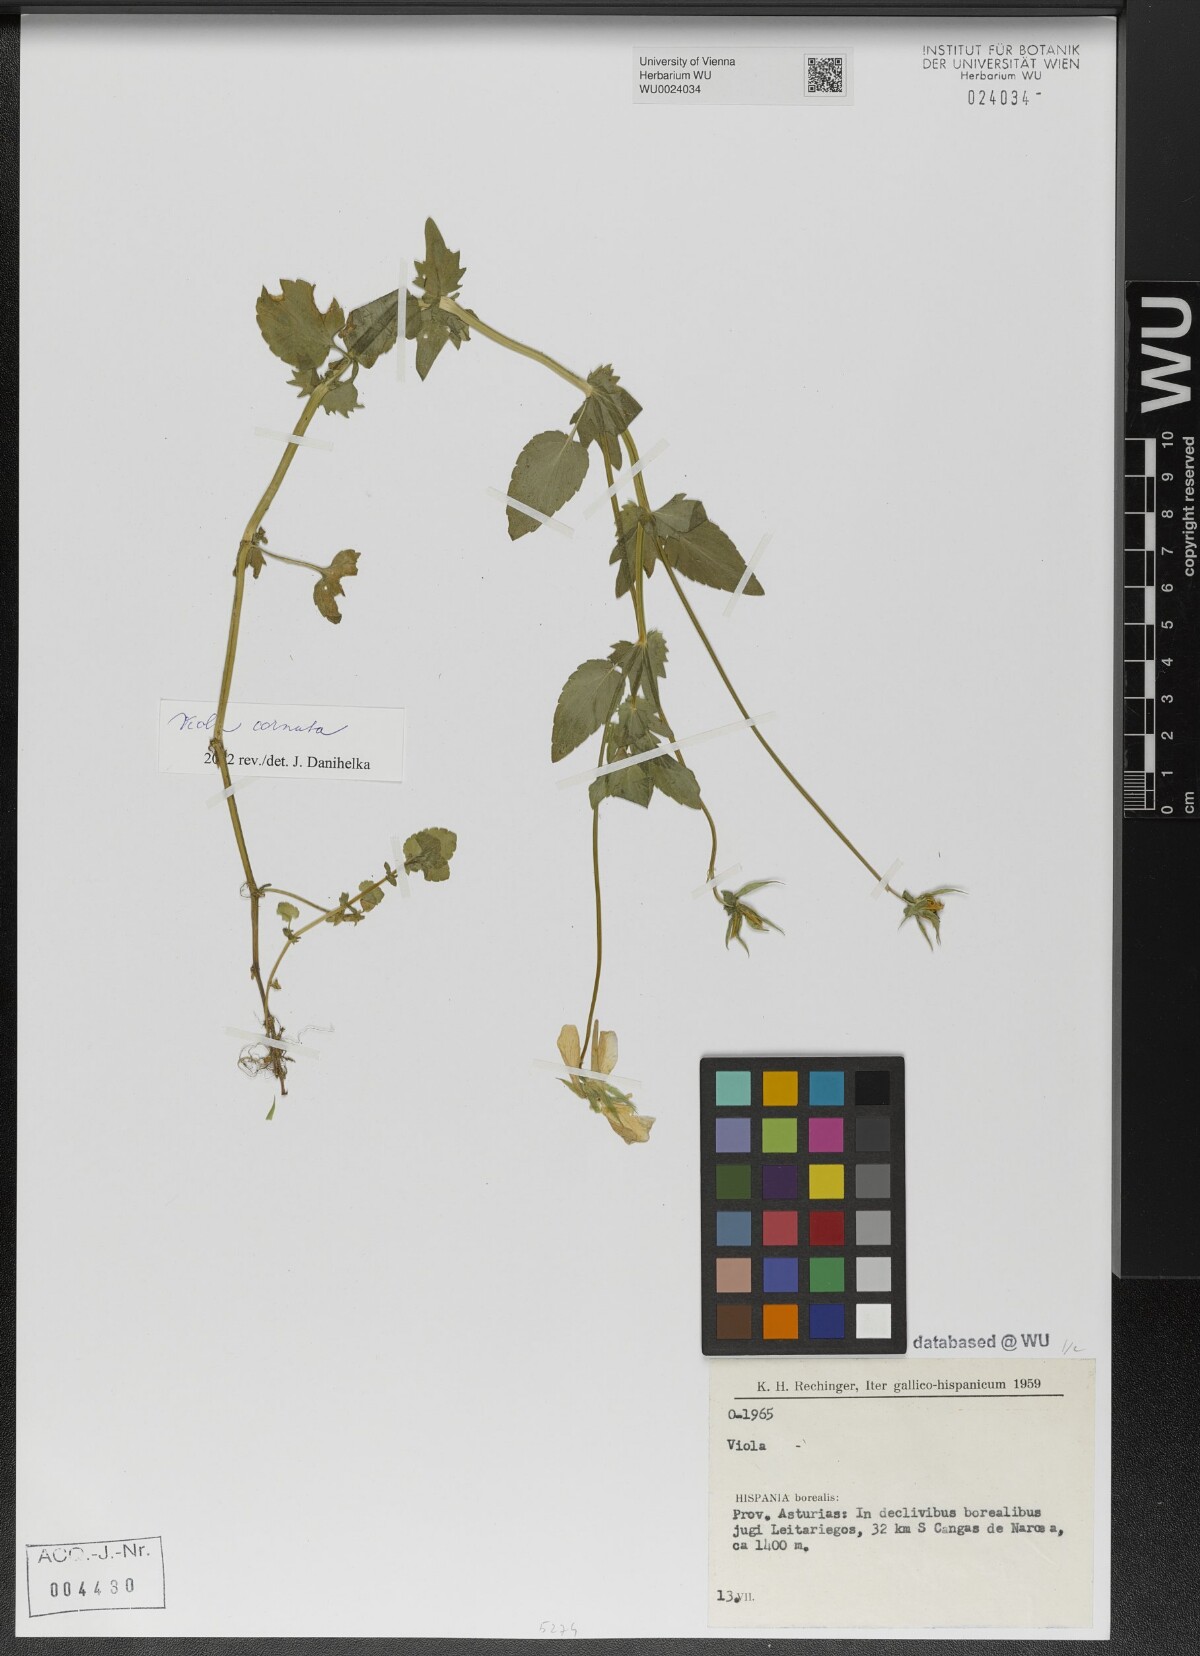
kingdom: Plantae
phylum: Tracheophyta
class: Magnoliopsida
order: Malpighiales
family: Violaceae
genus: Viola
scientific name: Viola cornuta
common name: Horned pansy
